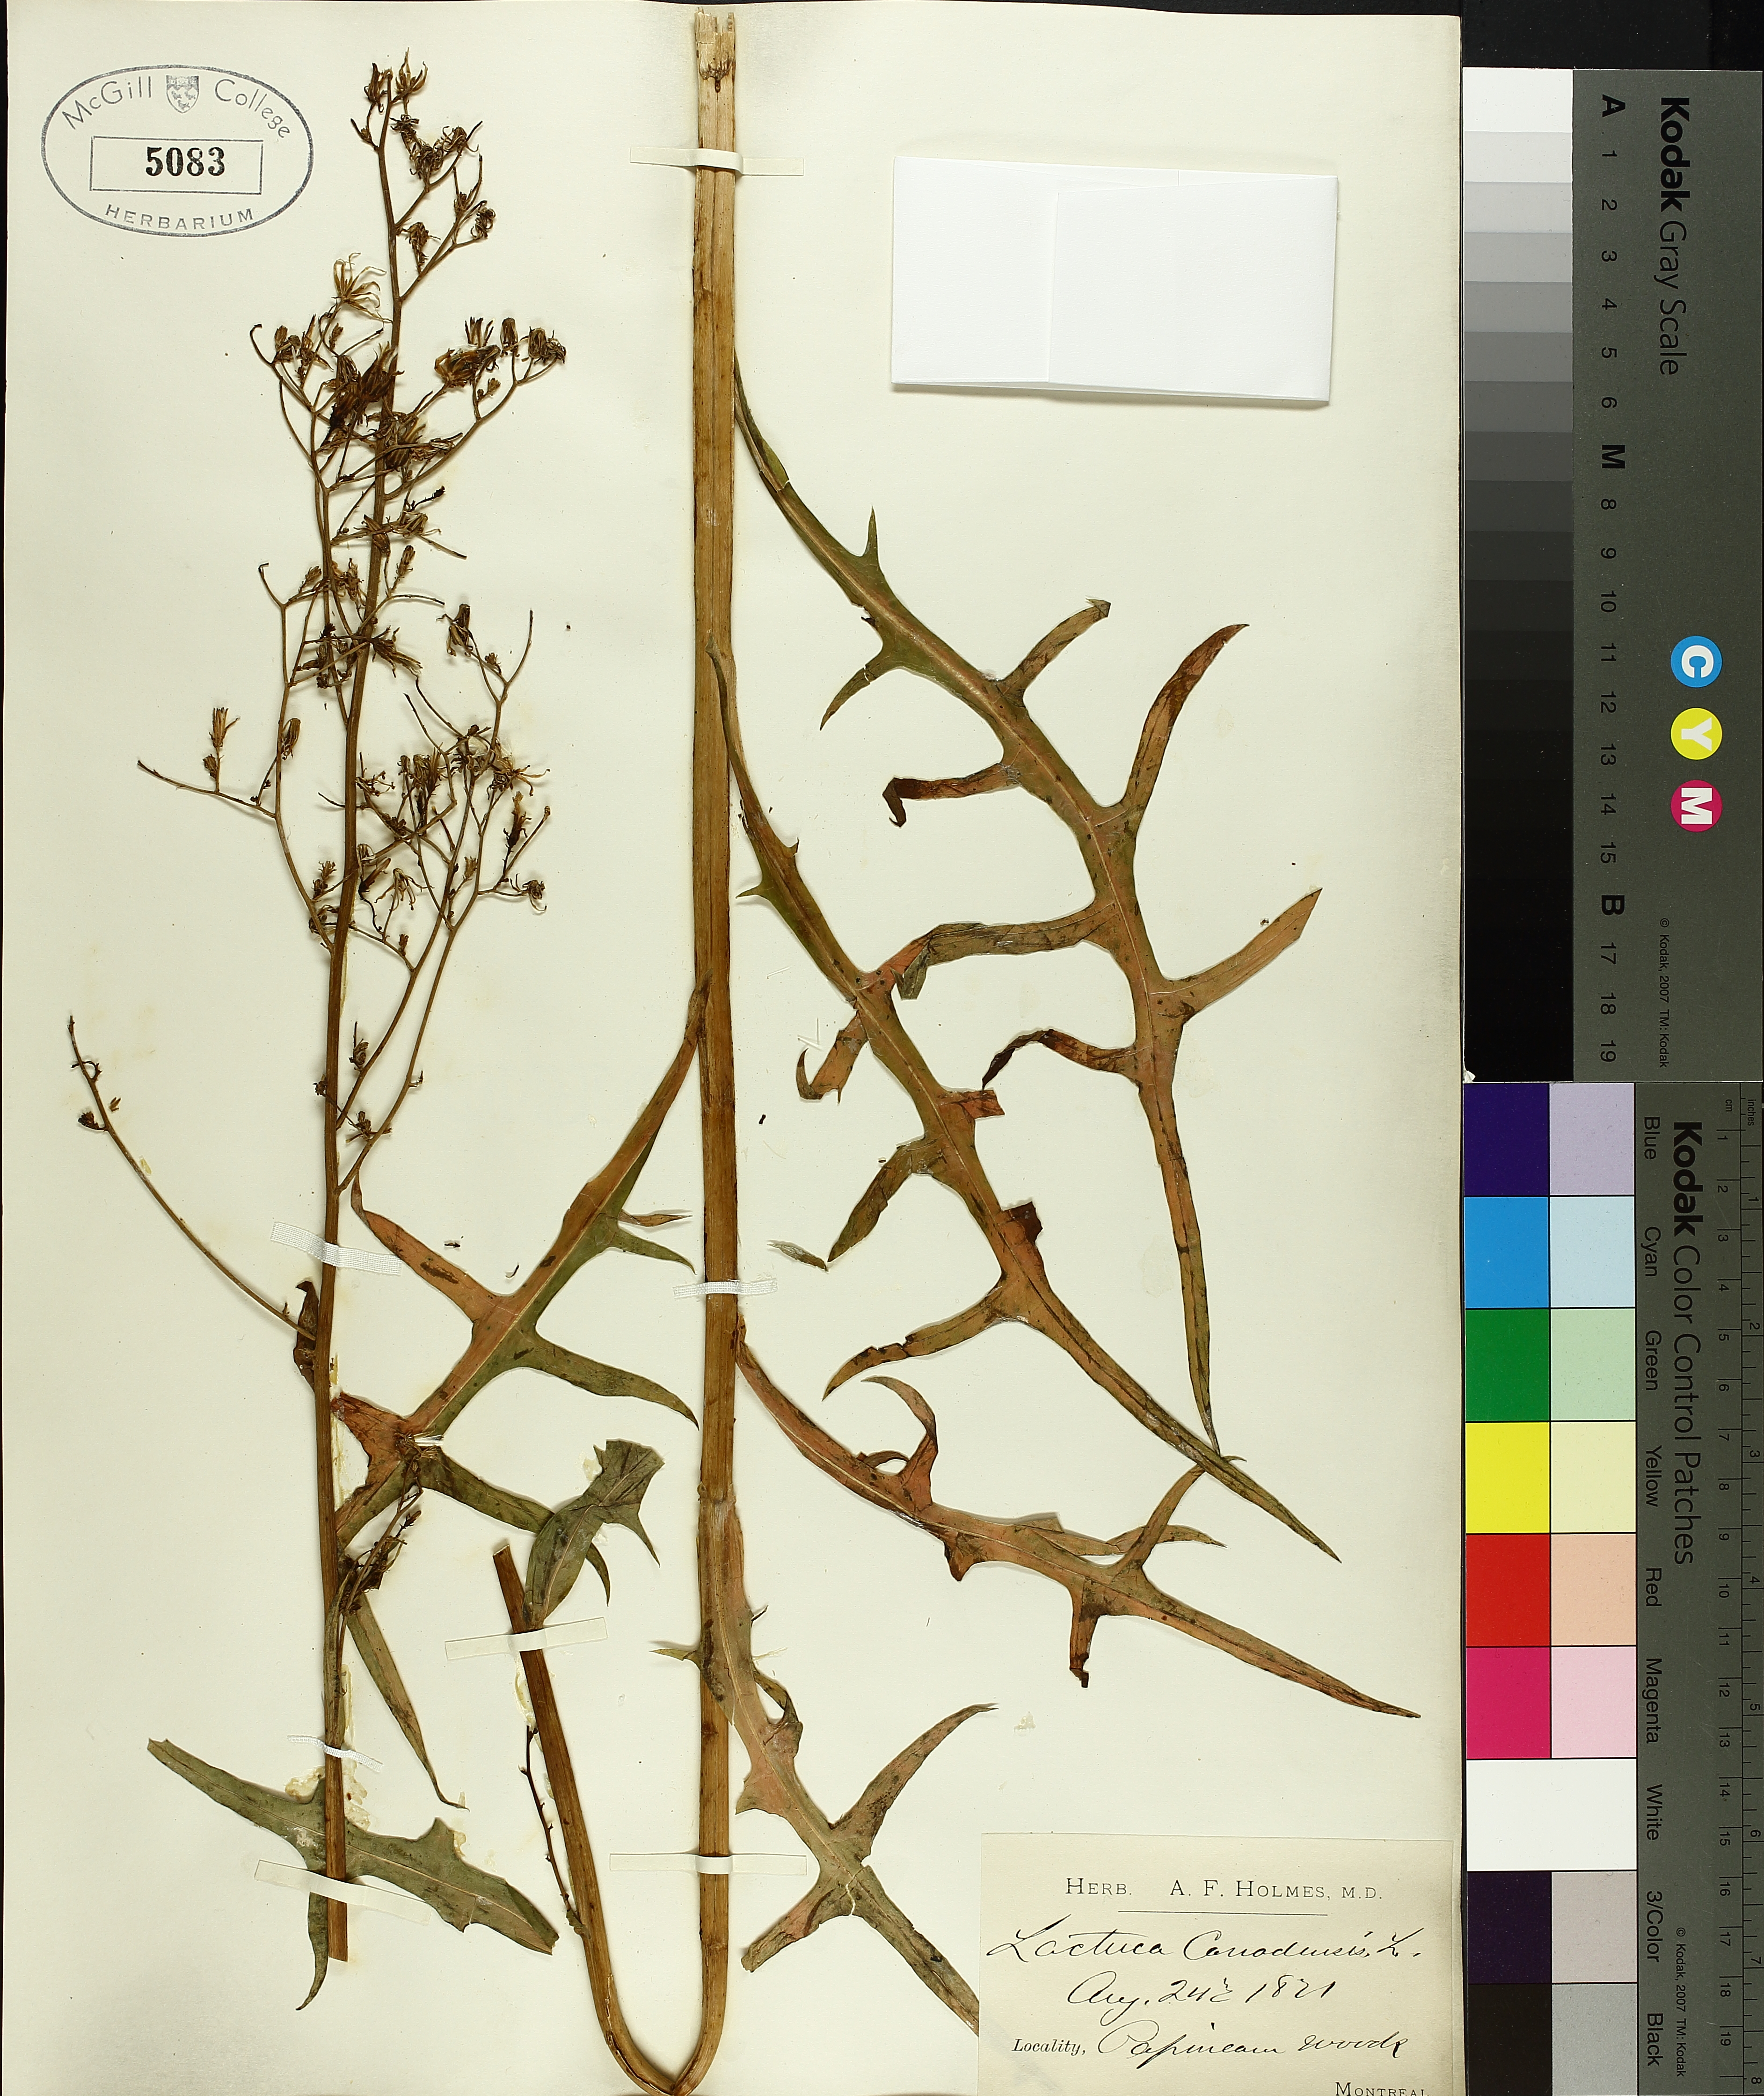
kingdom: Plantae
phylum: Tracheophyta
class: Magnoliopsida
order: Asterales
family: Asteraceae
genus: Lactuca
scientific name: Lactuca canadensis
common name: Canada lettuce
